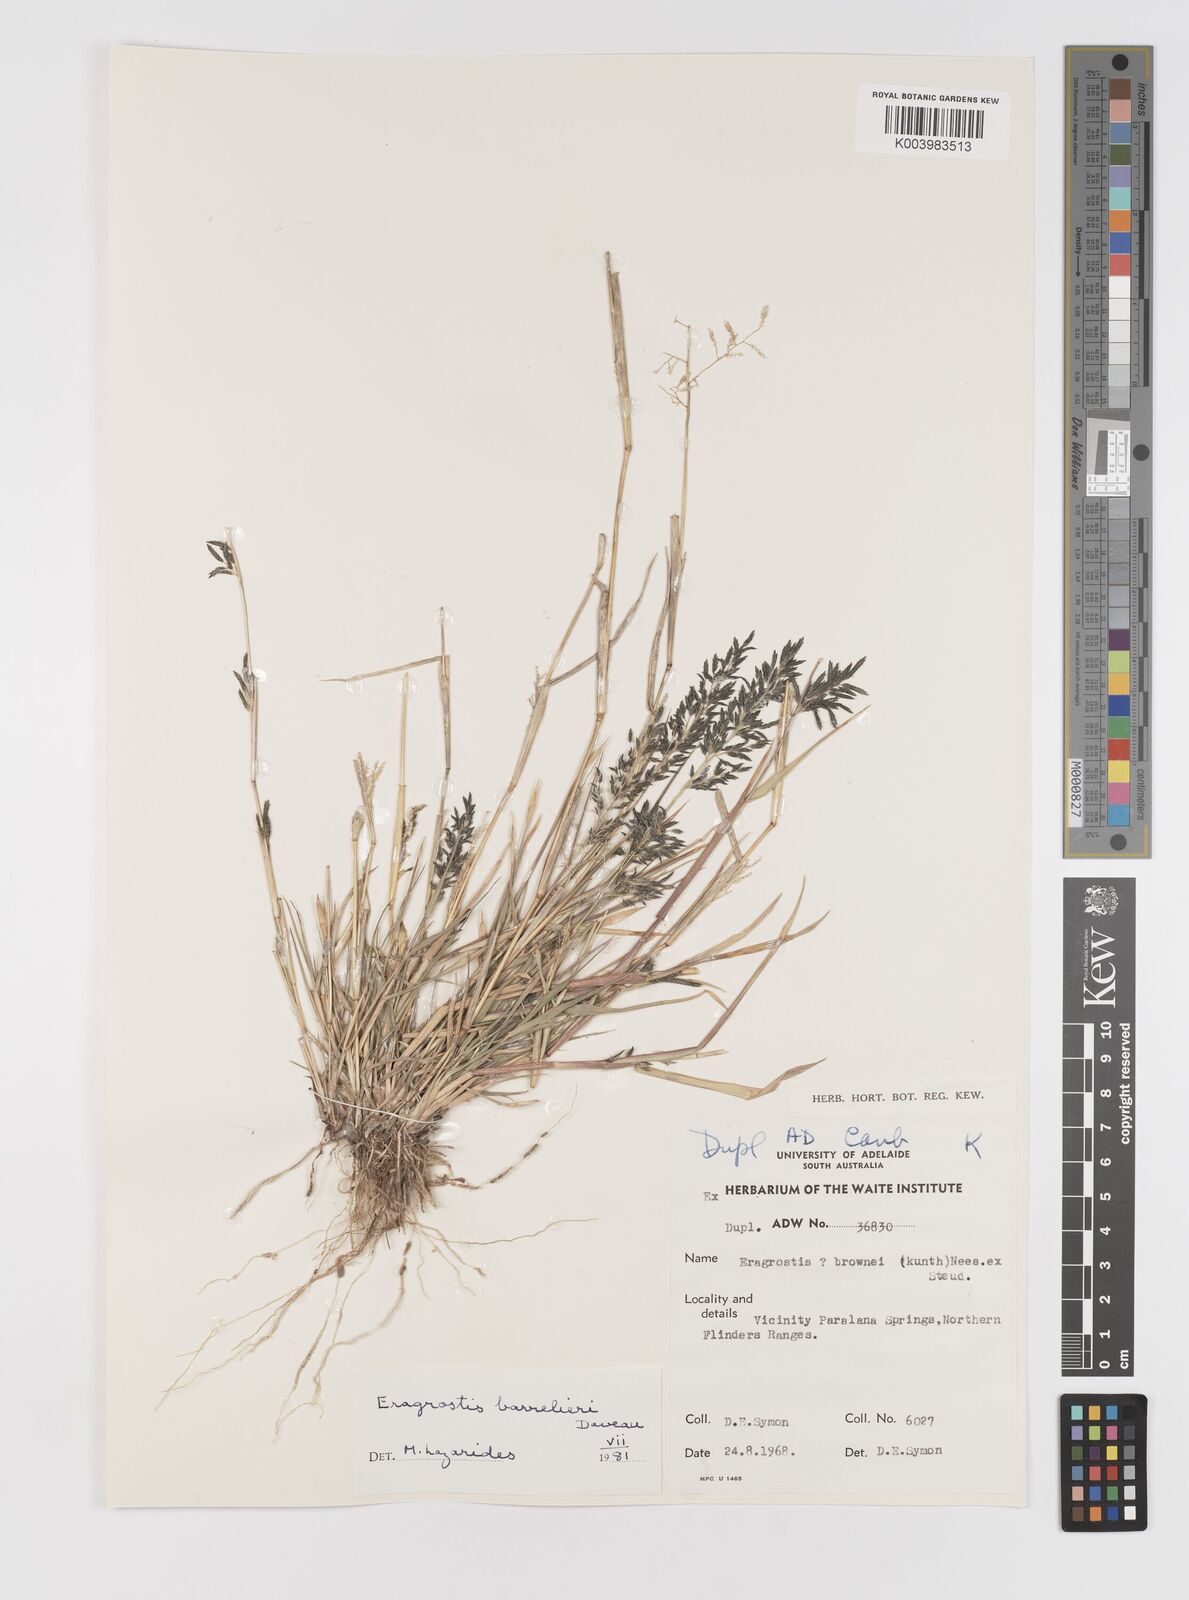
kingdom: Plantae
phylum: Tracheophyta
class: Liliopsida
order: Poales
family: Poaceae
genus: Eragrostis
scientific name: Eragrostis barrelieri
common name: Mediterranean lovegrass
